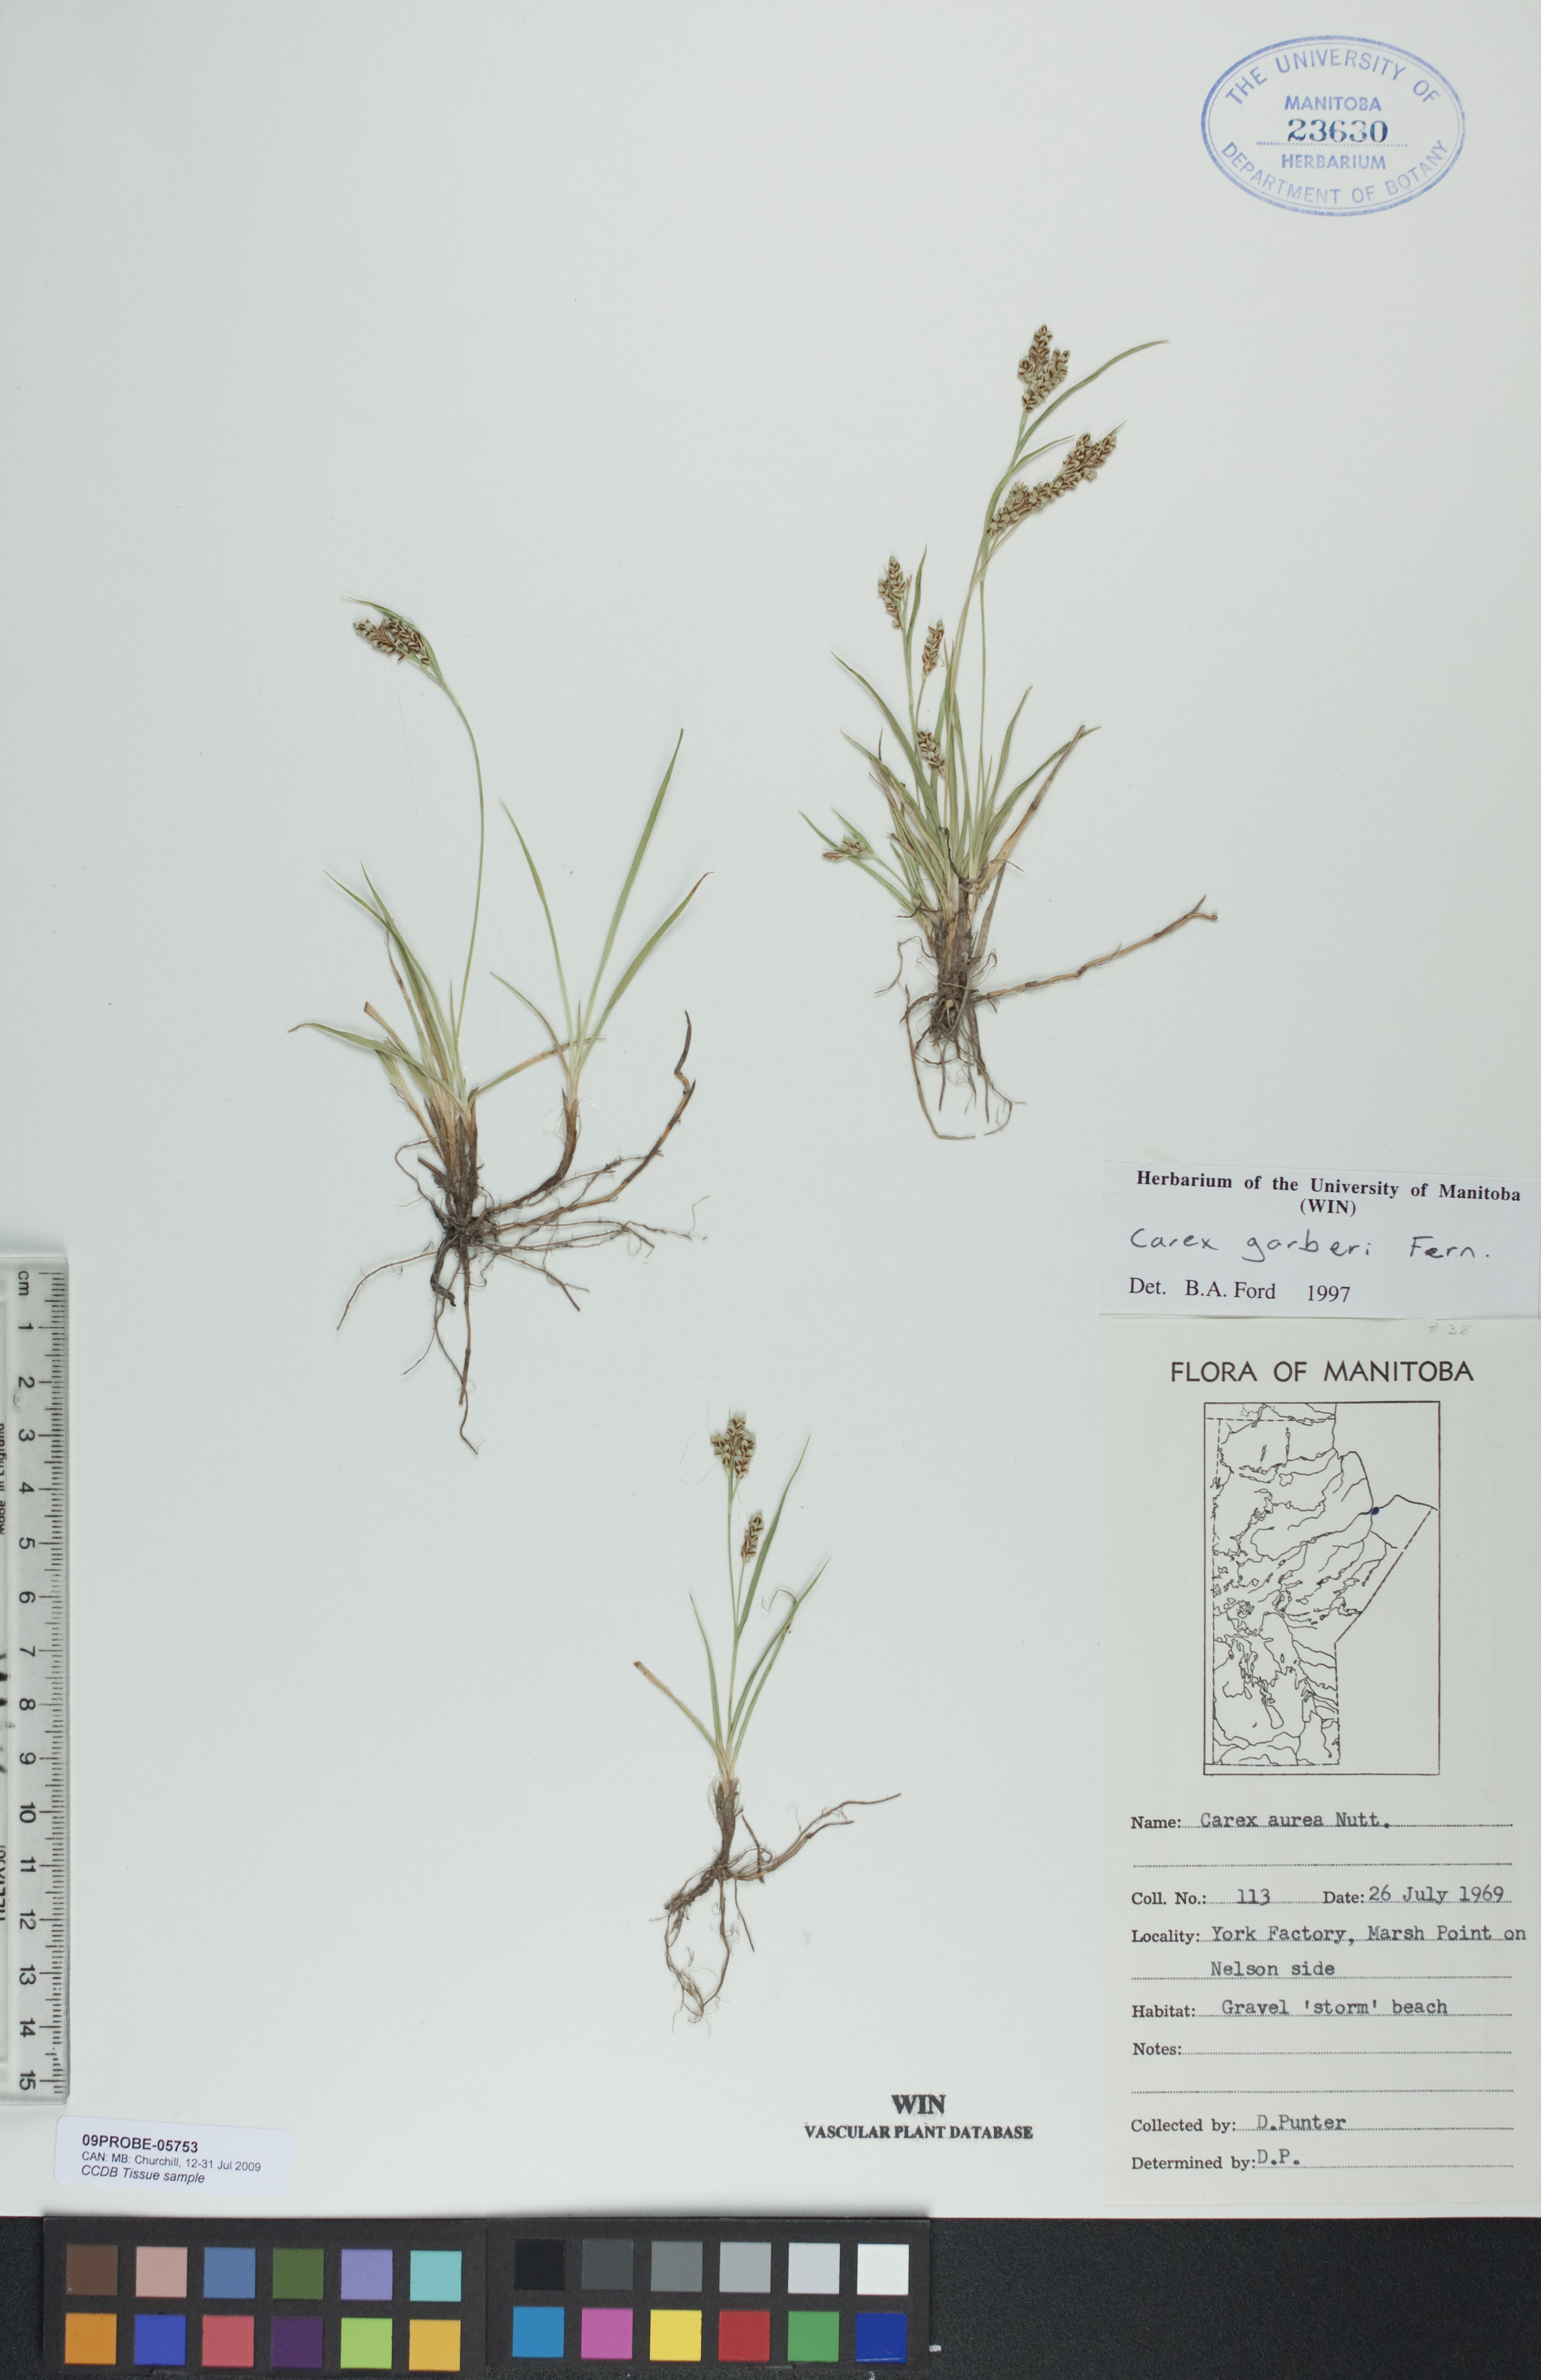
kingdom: Plantae
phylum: Tracheophyta
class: Liliopsida
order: Poales
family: Cyperaceae
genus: Carex
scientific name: Carex garberi
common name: Elk sedge
